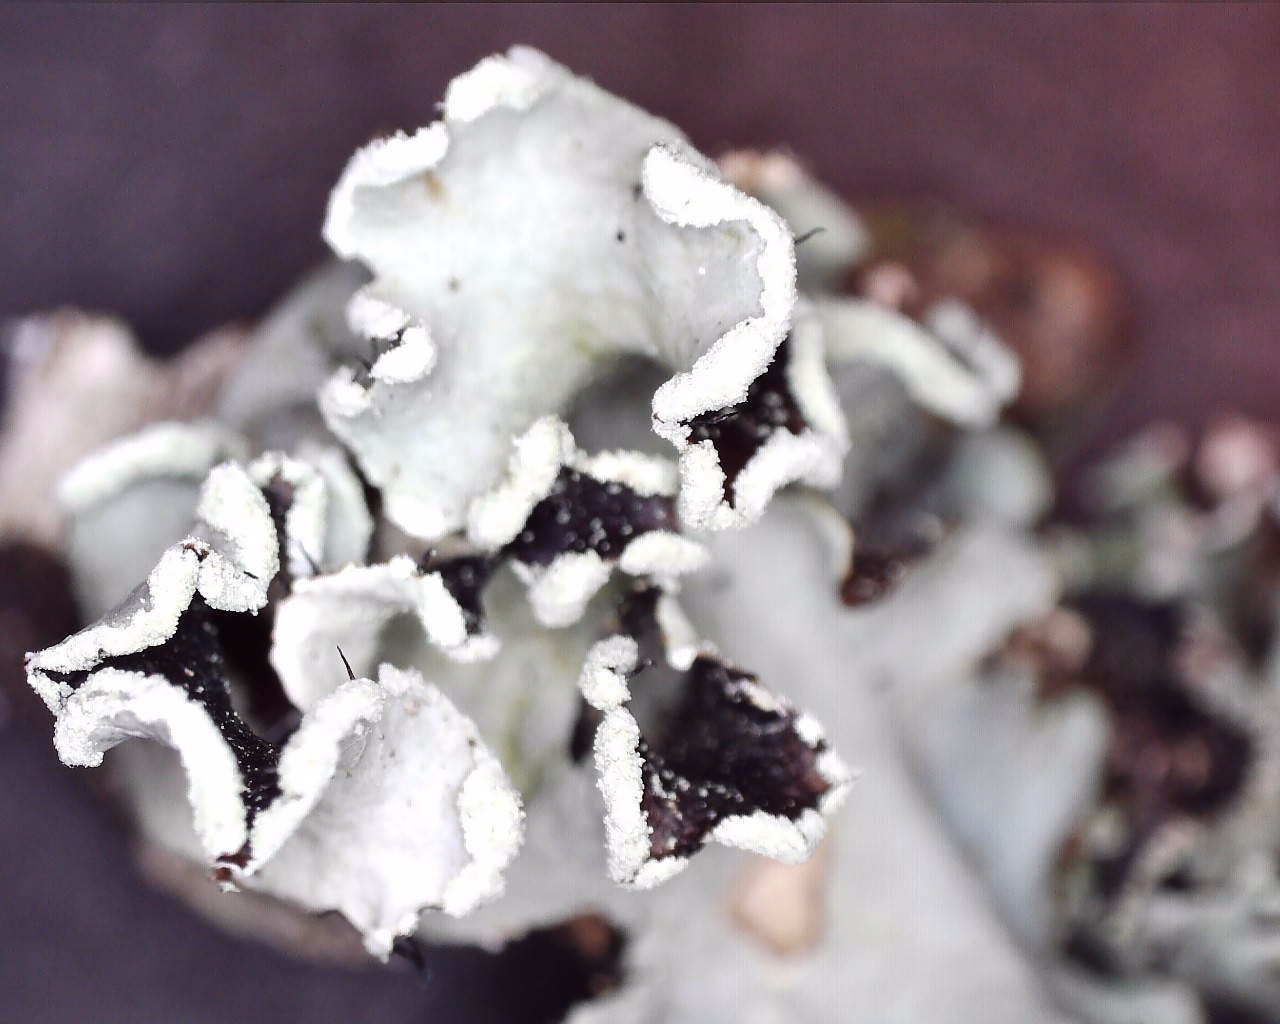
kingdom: Fungi
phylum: Ascomycota
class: Lecanoromycetes
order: Lecanorales
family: Parmeliaceae
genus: Parmotrema
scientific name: Parmotrema perlatum
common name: trådet skållav
